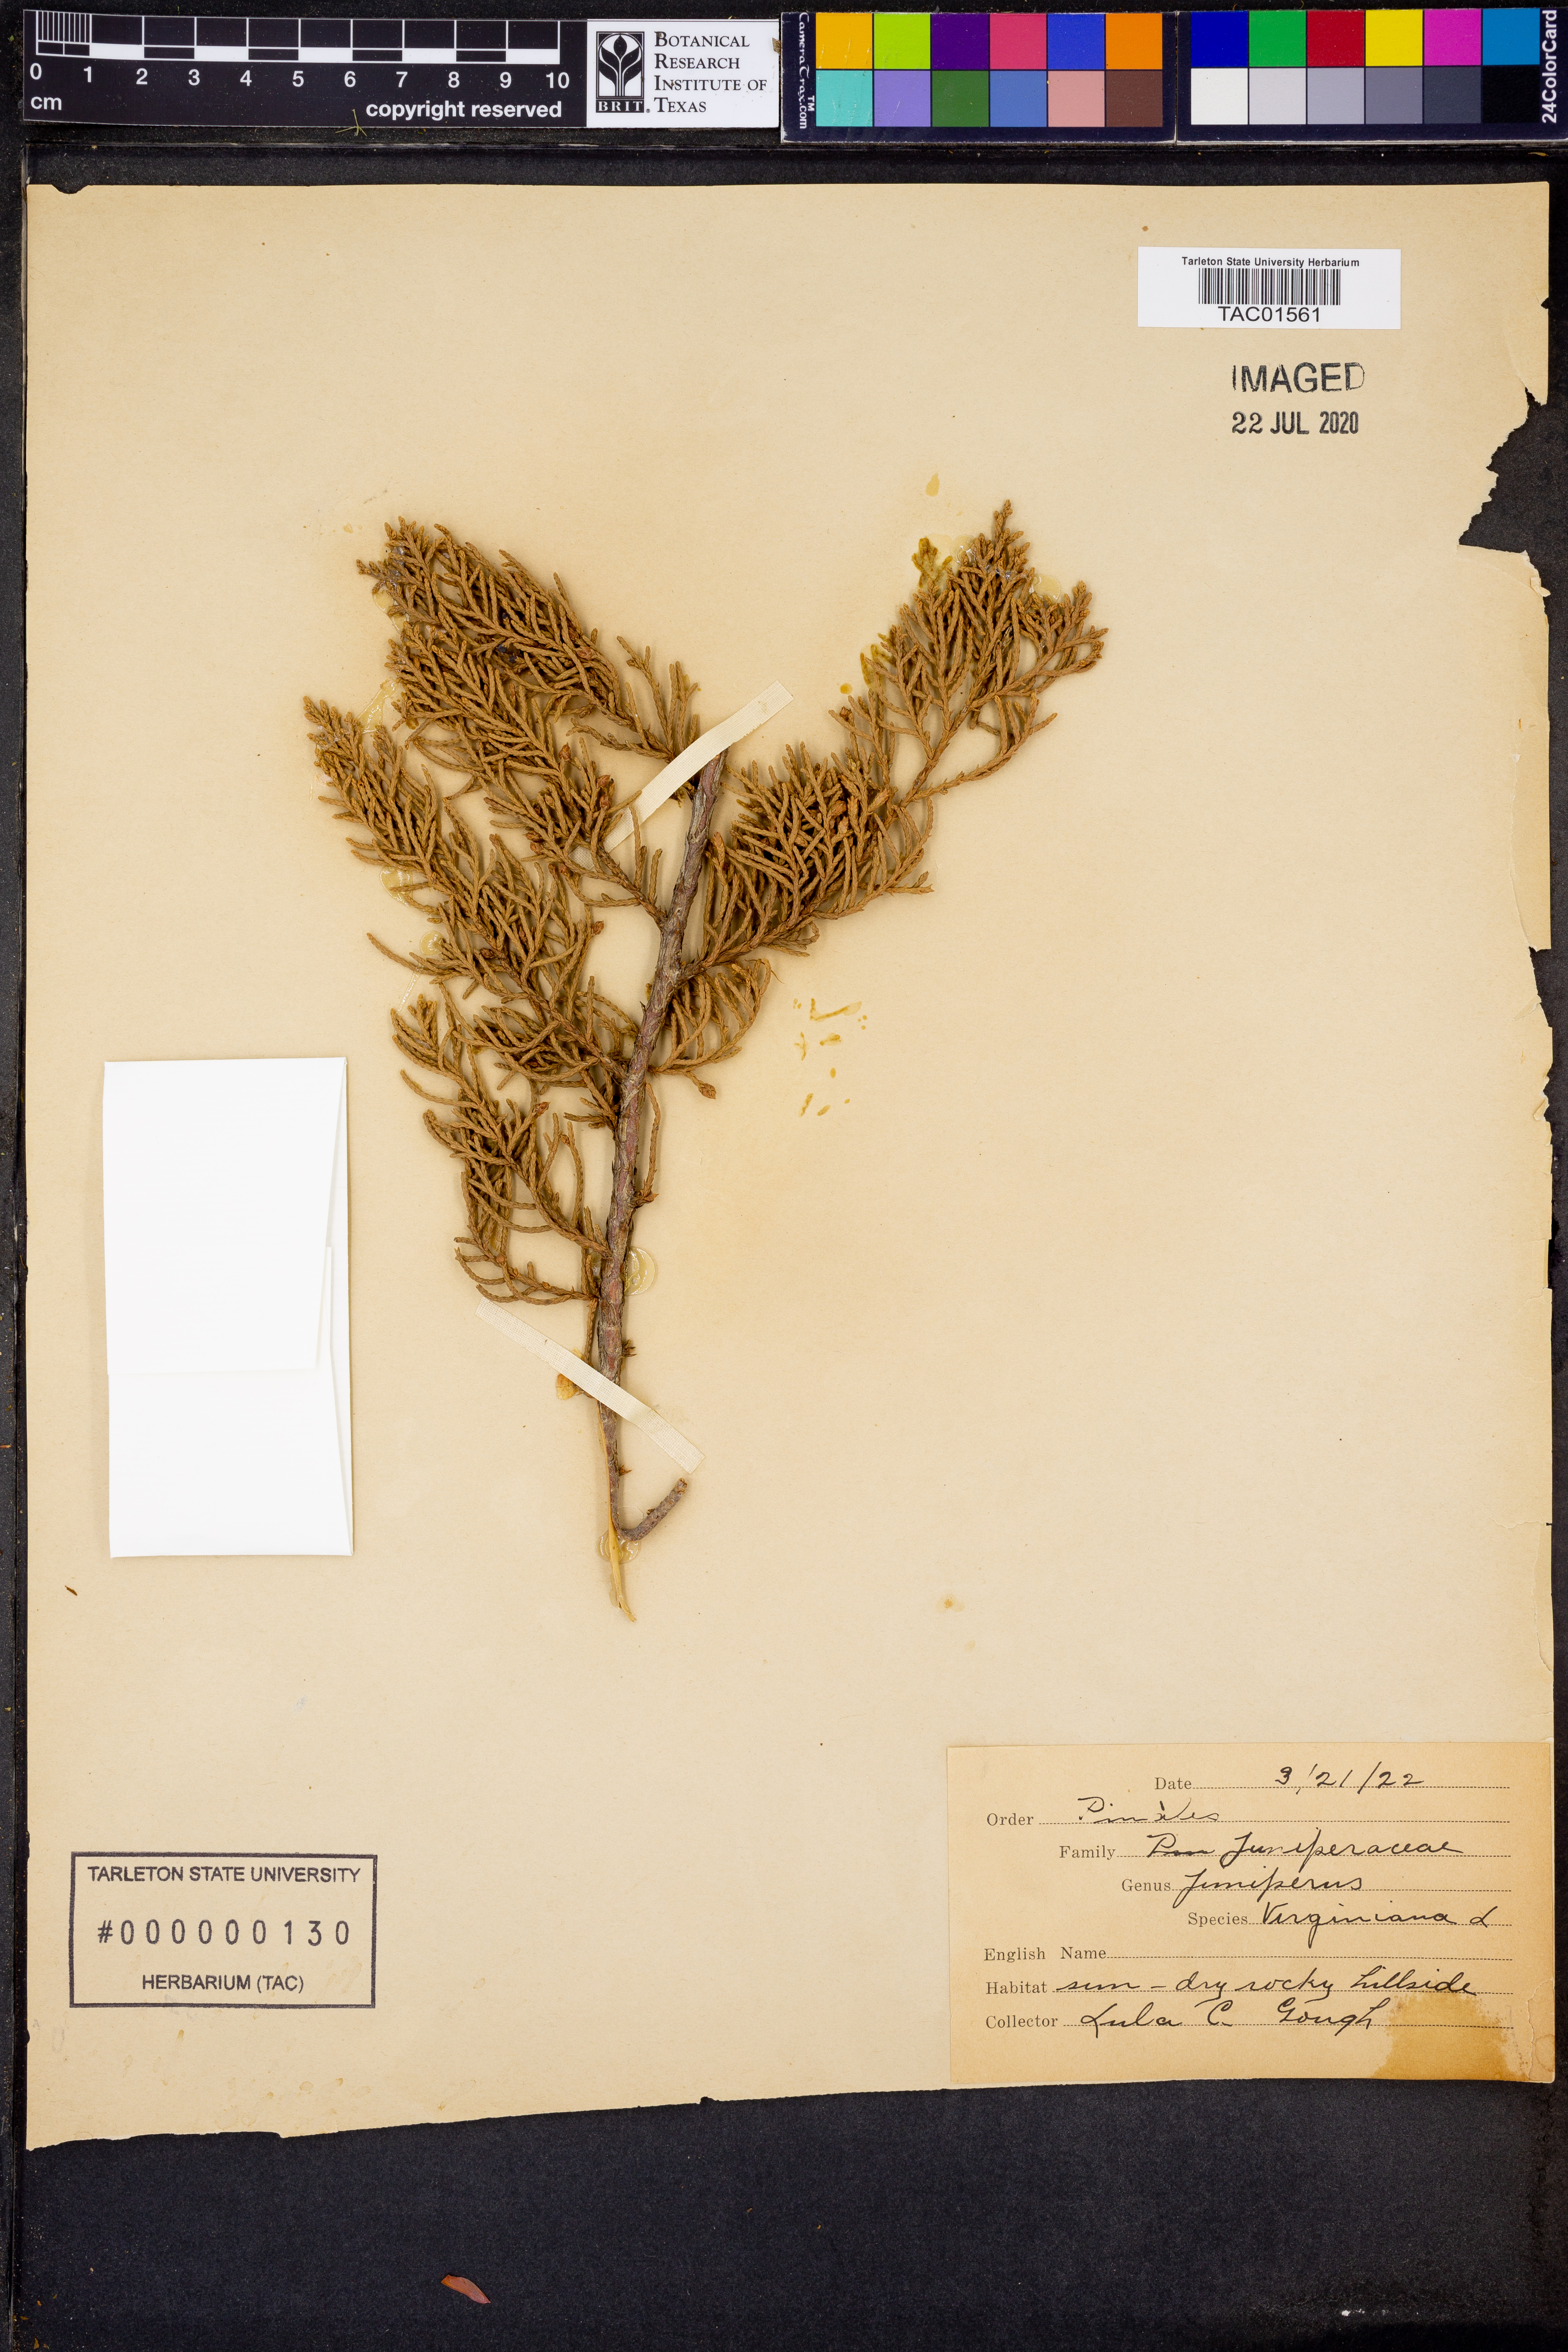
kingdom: Plantae
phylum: Tracheophyta
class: Pinopsida
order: Pinales
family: Cupressaceae
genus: Juniperus
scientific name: Juniperus virginiana
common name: Red juniper
